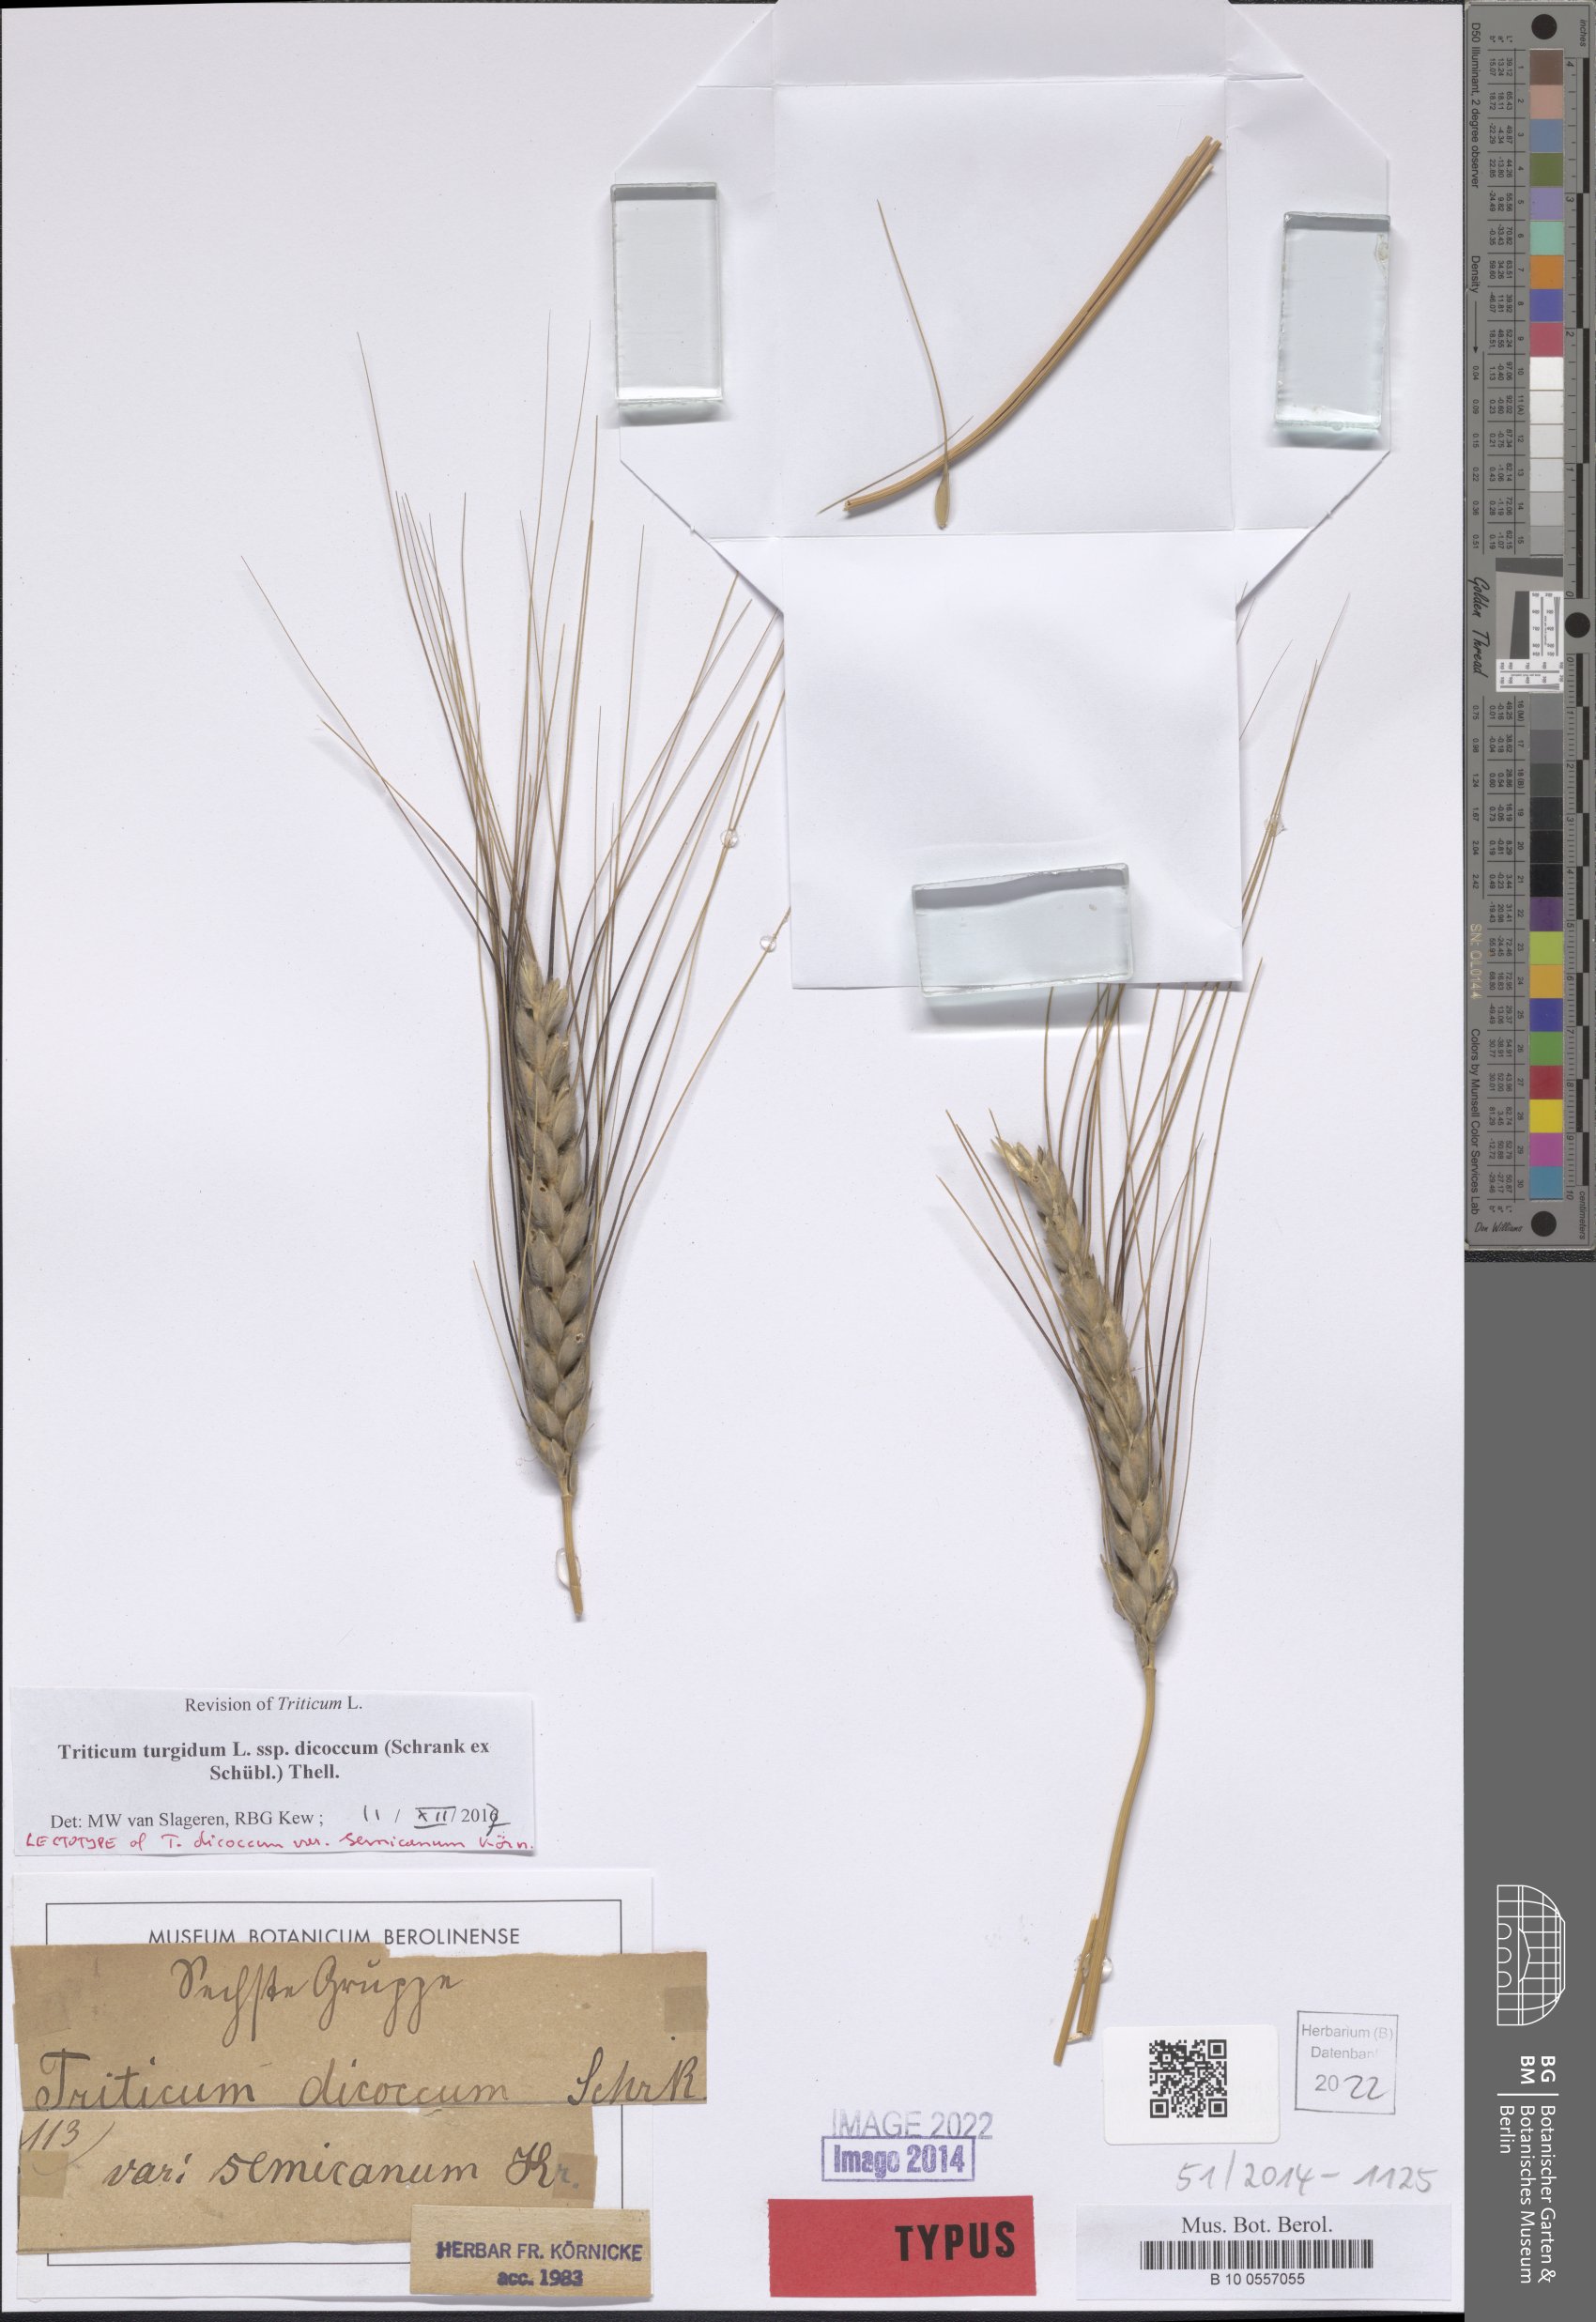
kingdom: Plantae
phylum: Tracheophyta
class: Liliopsida
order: Poales
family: Poaceae
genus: Triticum
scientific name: Triticum turgidum
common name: Rivet wheat
